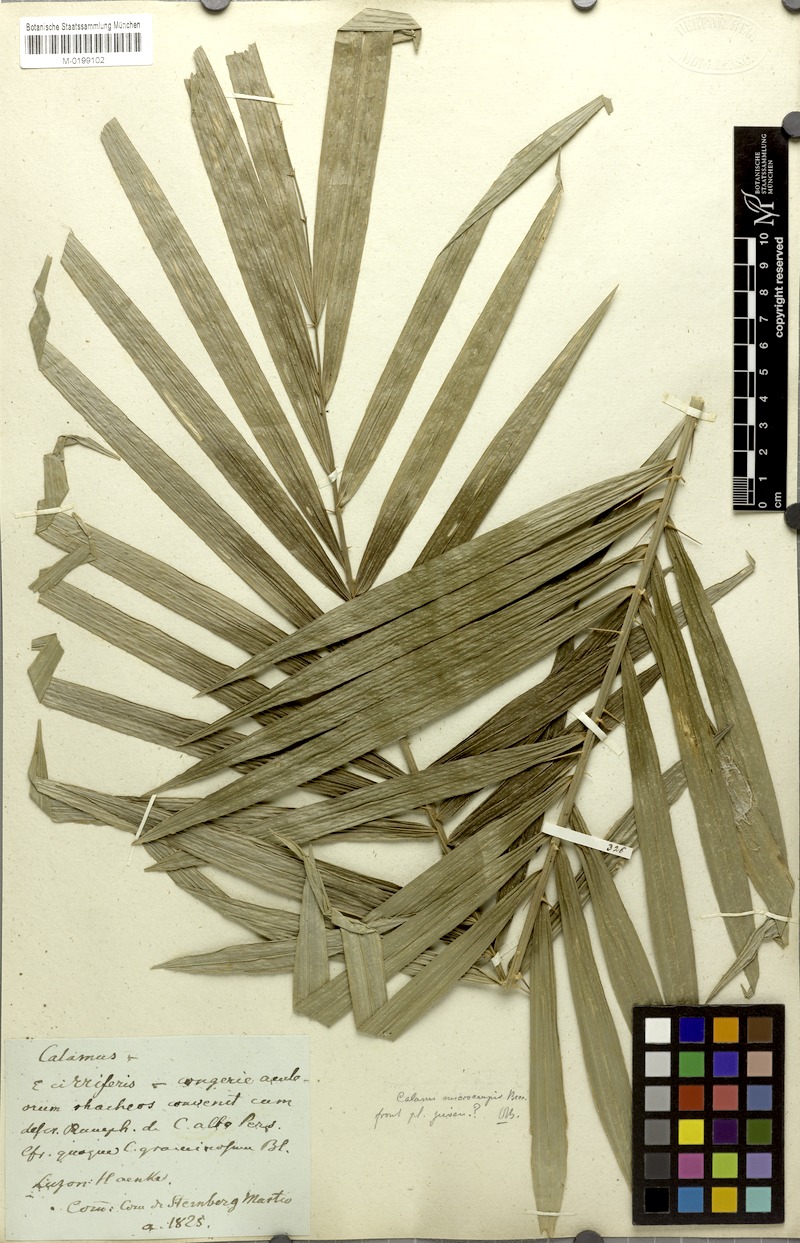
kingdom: Plantae
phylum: Tracheophyta
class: Liliopsida
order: Arecales
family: Arecaceae
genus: Calamus
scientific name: Calamus siphonospathus
